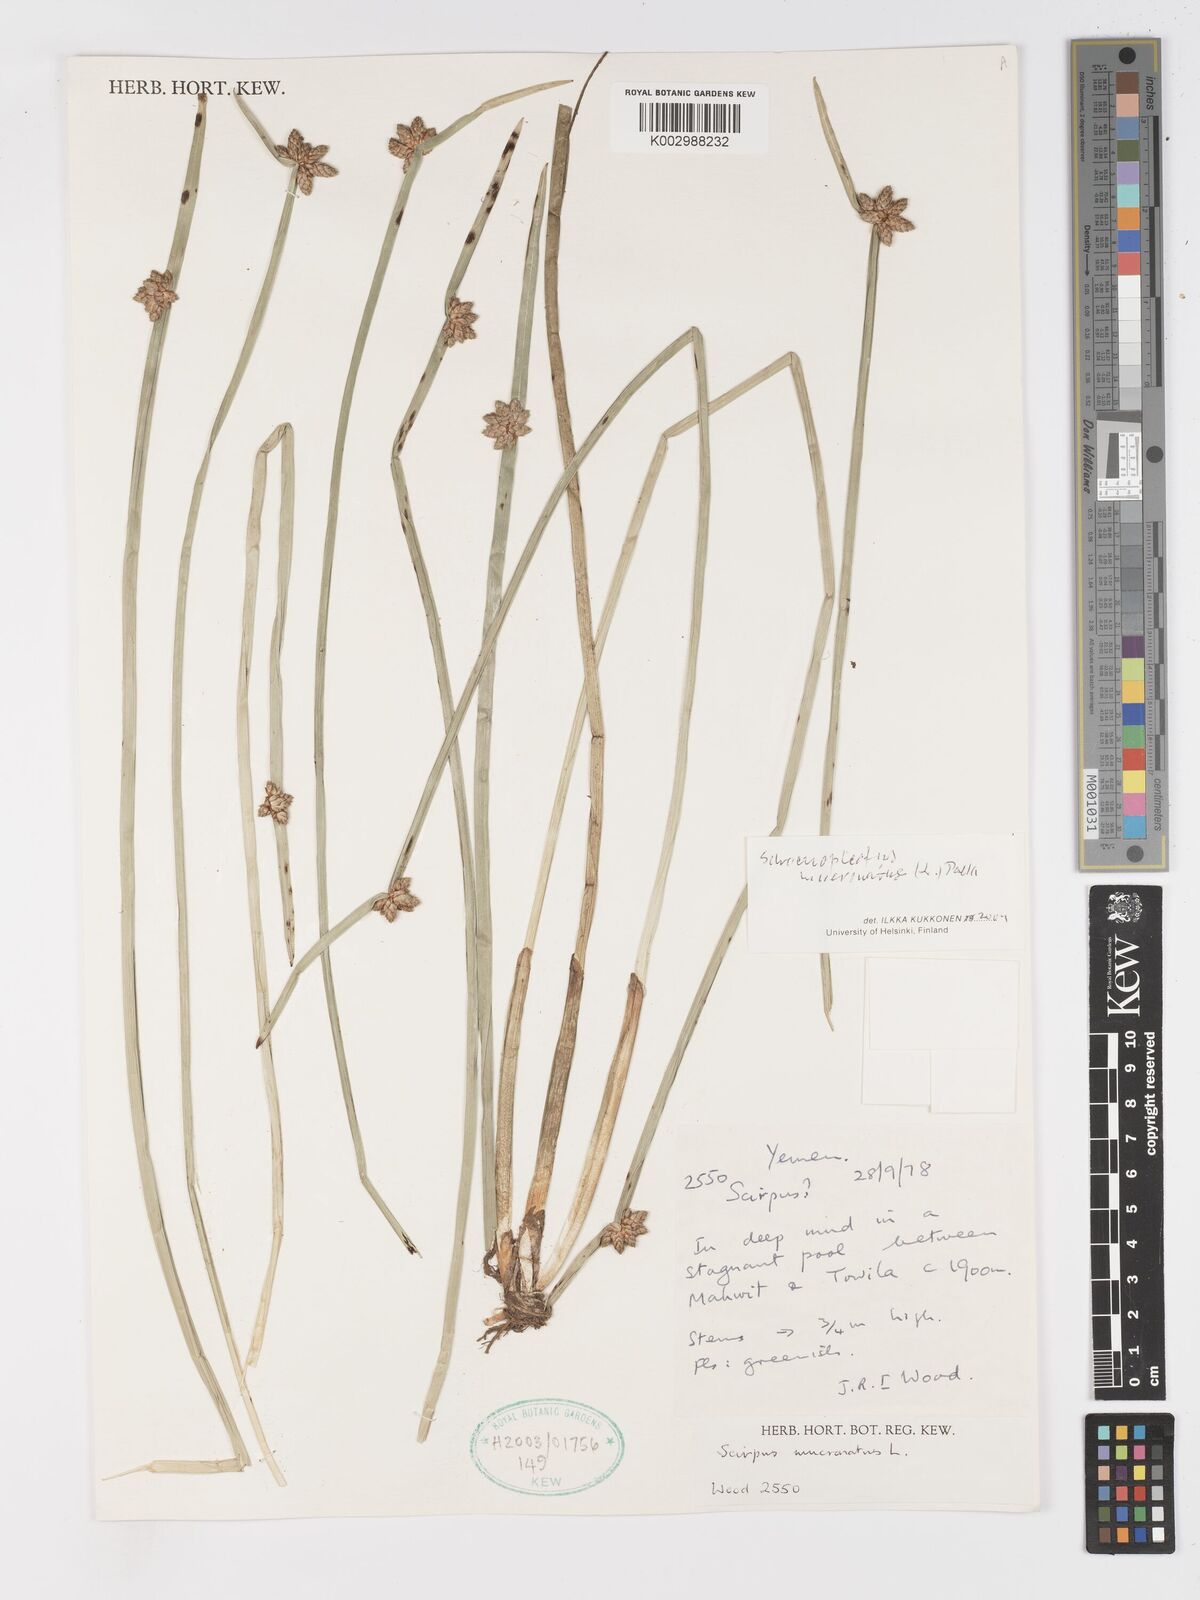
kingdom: Plantae
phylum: Tracheophyta
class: Liliopsida
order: Poales
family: Cyperaceae
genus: Schoenoplectiella
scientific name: Schoenoplectiella mucronata
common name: Bog bulrush
